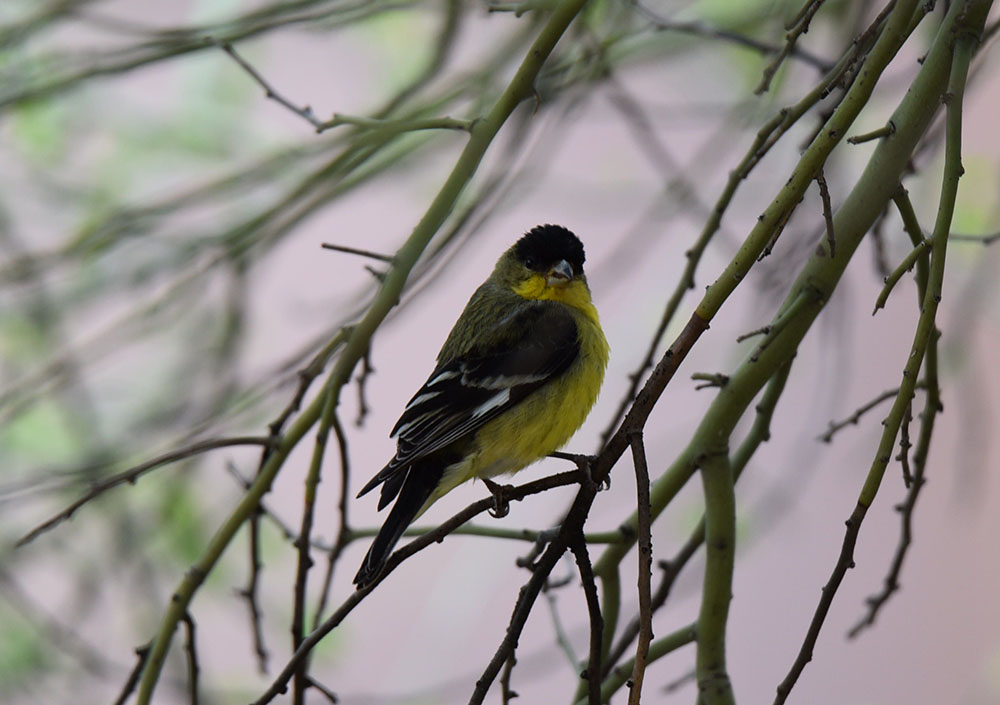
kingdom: Animalia
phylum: Chordata
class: Aves
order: Passeriformes
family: Fringillidae
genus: Spinus
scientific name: Spinus psaltria
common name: Lesser goldfinch
